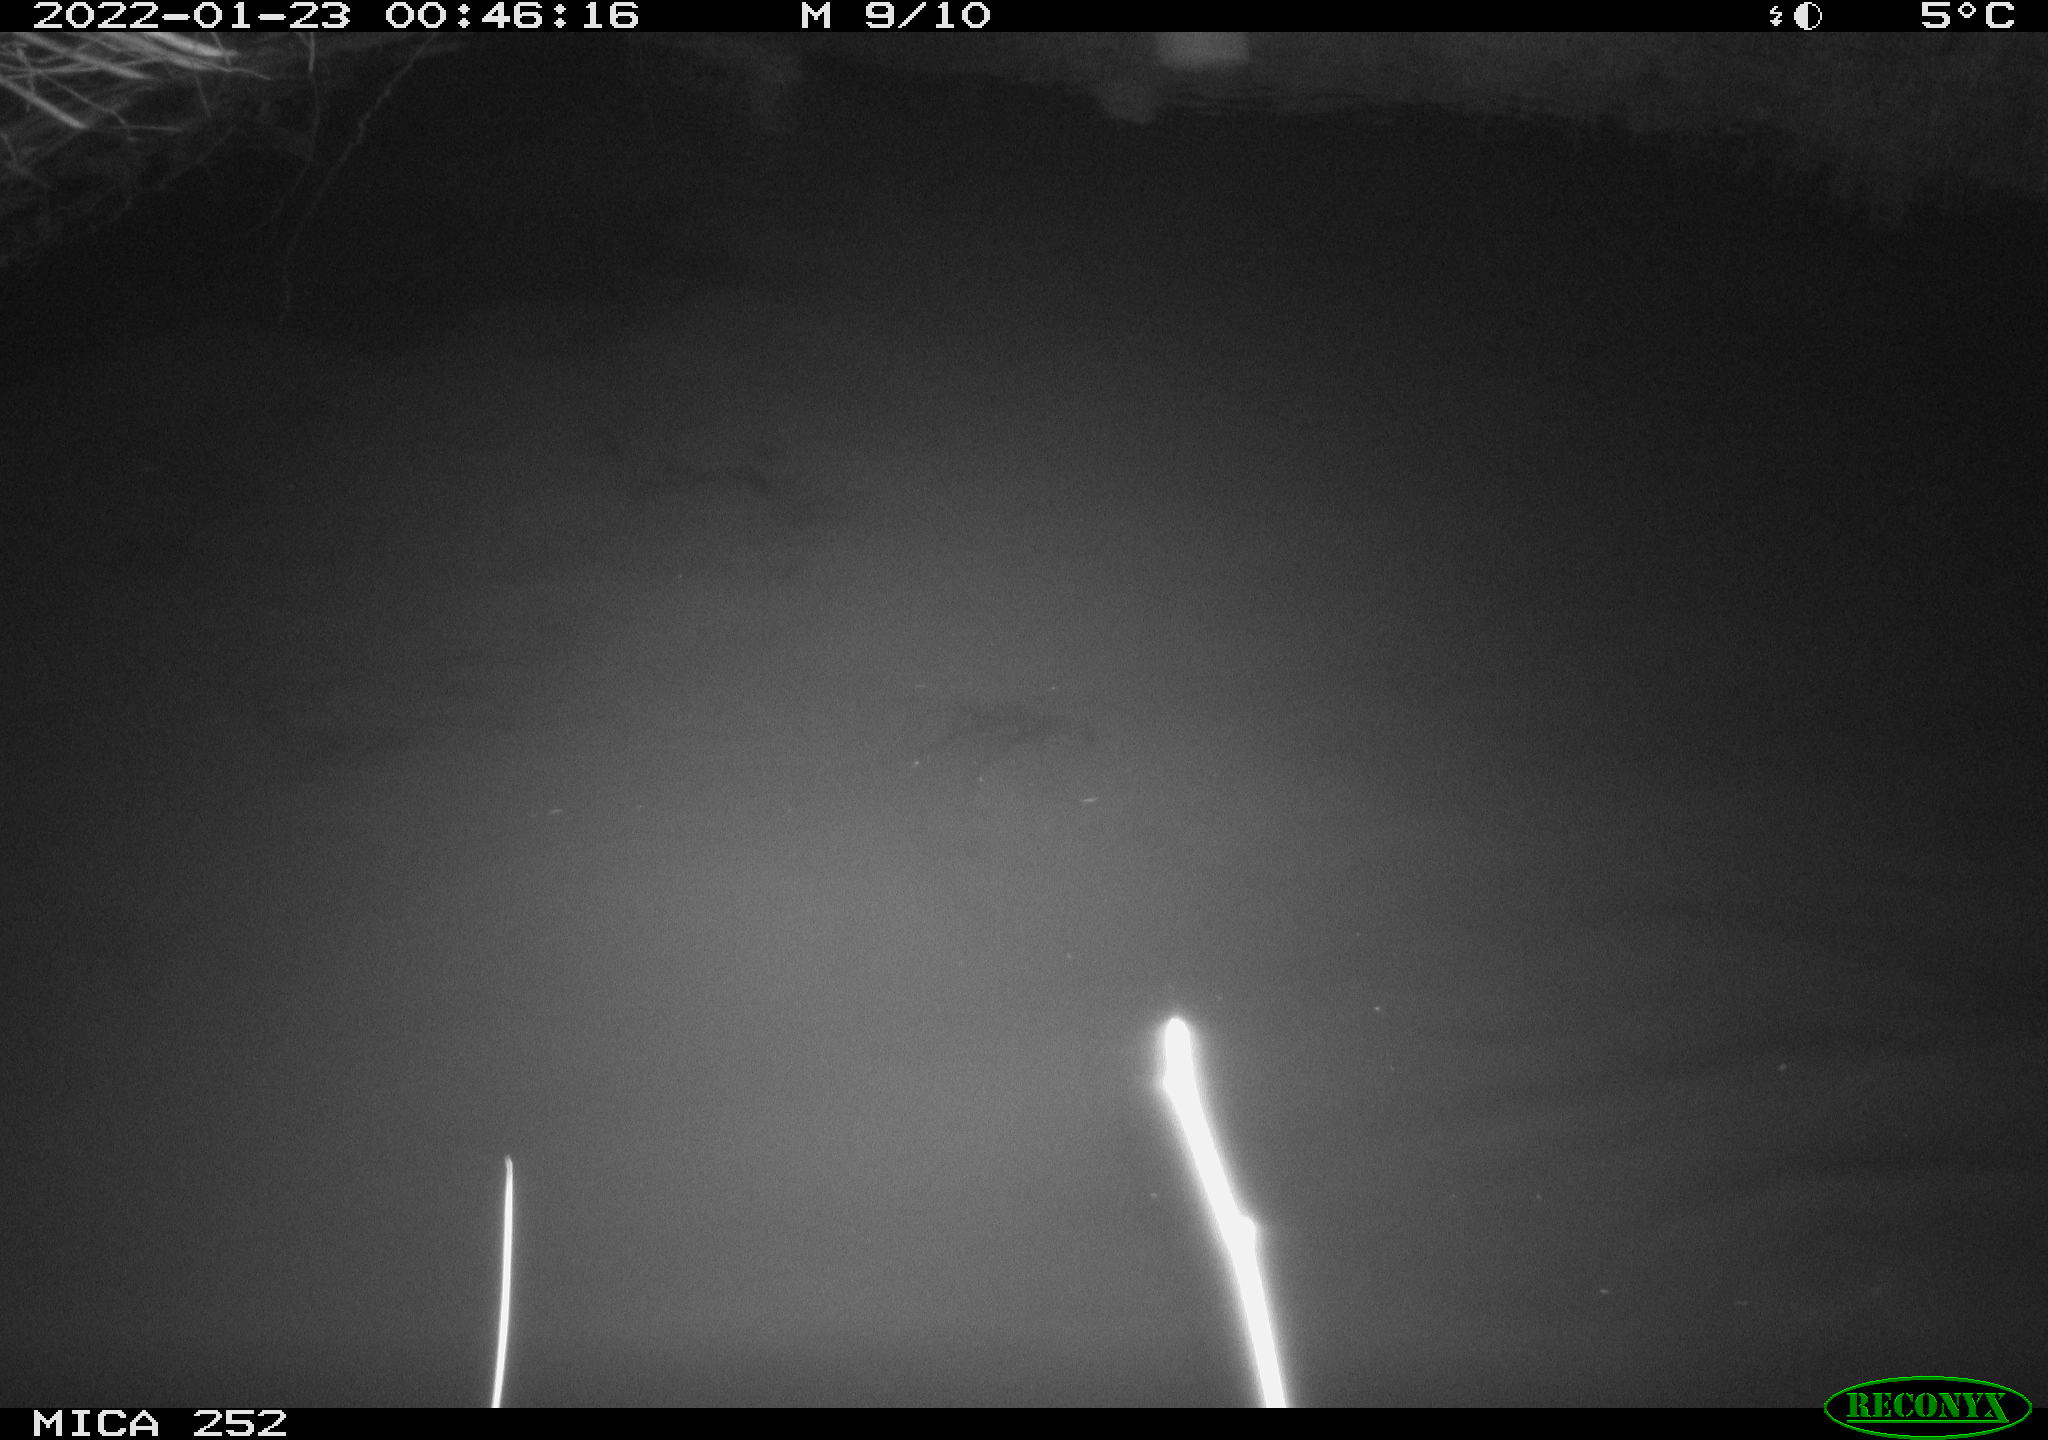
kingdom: Animalia
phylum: Chordata
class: Mammalia
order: Rodentia
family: Castoridae
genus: Castor
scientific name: Castor fiber
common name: Eurasian beaver
